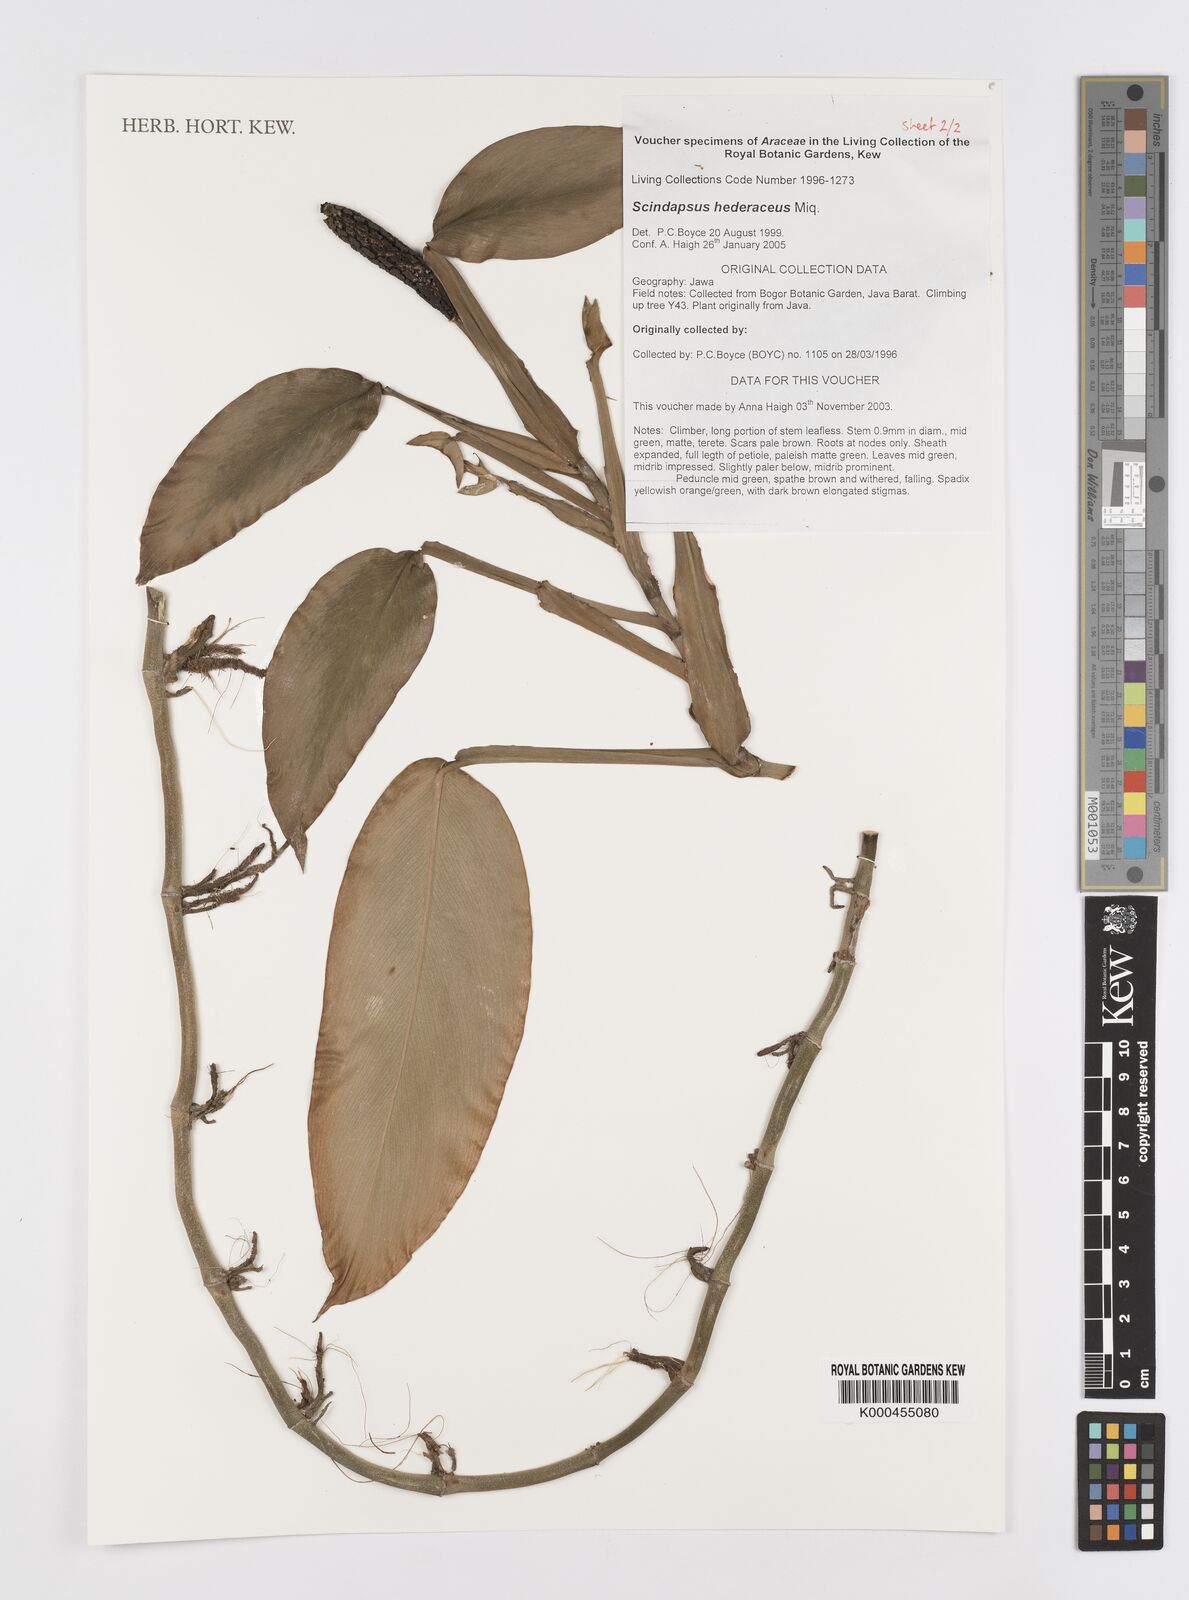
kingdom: Plantae
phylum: Tracheophyta
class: Liliopsida
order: Alismatales
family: Araceae
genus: Scindapsus
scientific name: Scindapsus hederaceus
